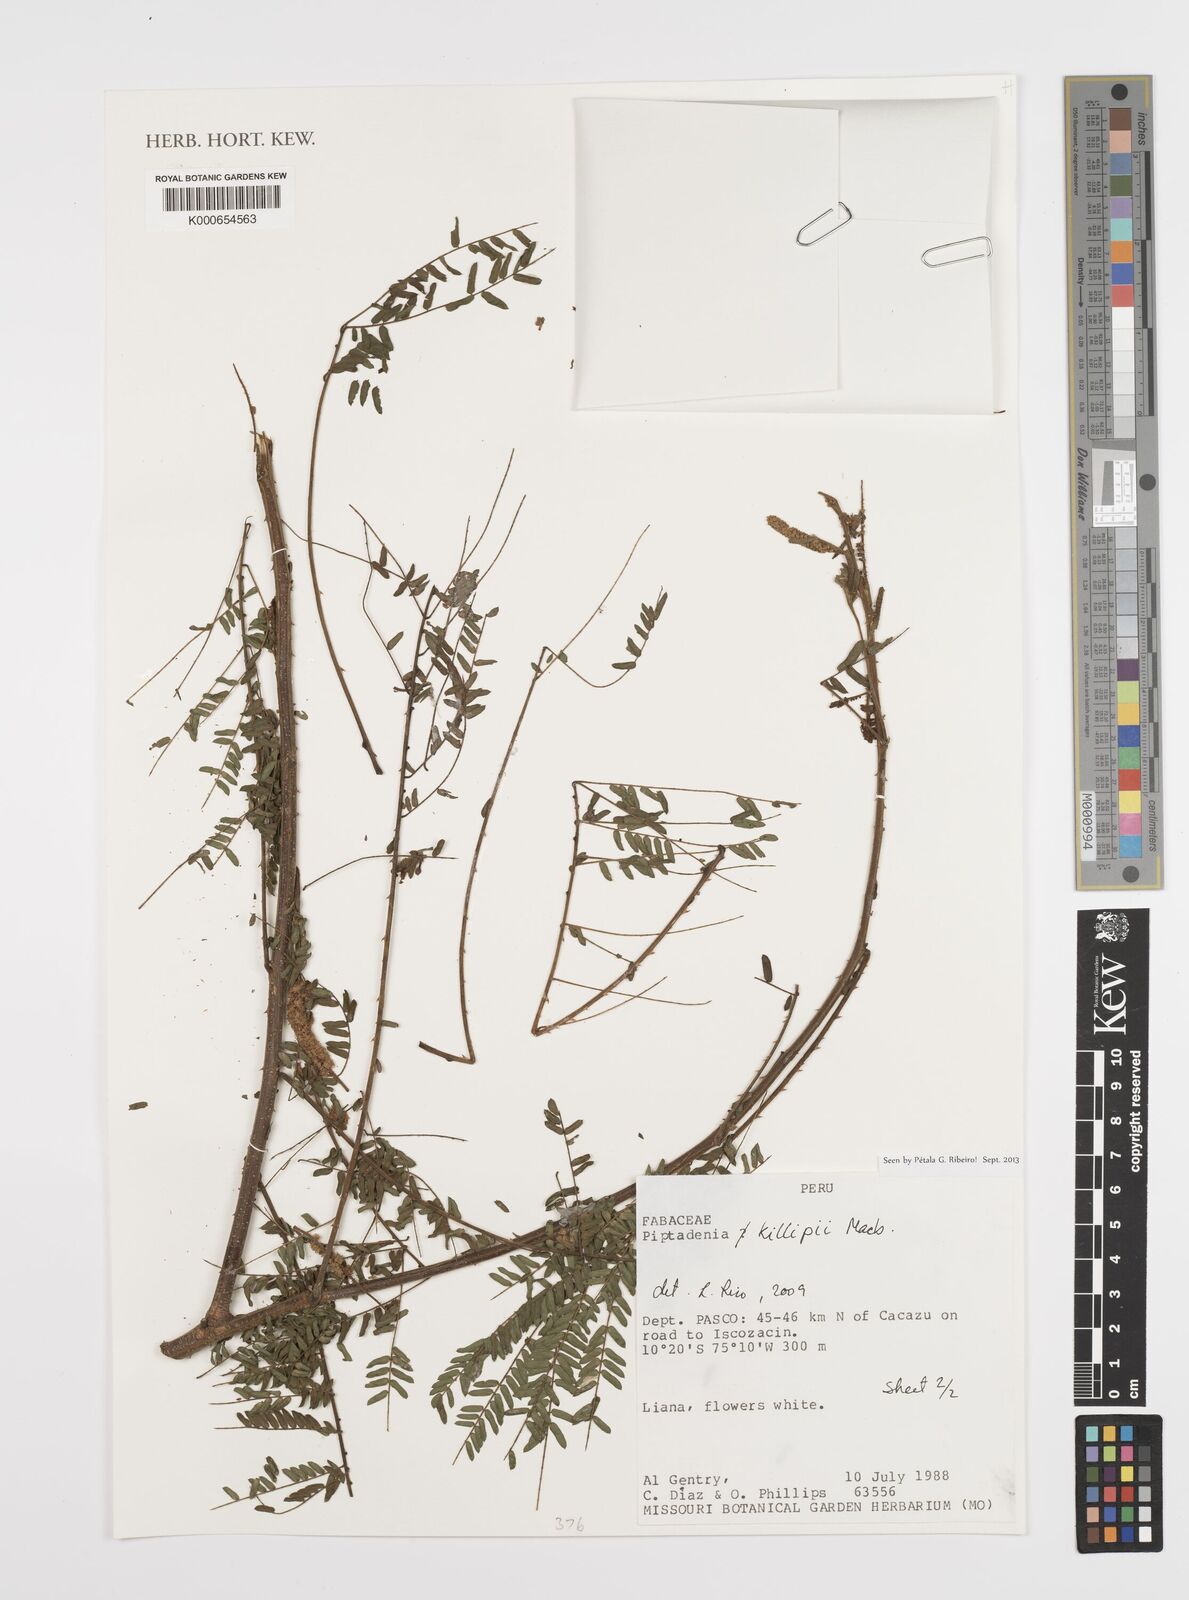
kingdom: Plantae
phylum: Tracheophyta
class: Magnoliopsida
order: Fabales
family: Fabaceae
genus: Pseudopiptadenia
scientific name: Pseudopiptadenia
